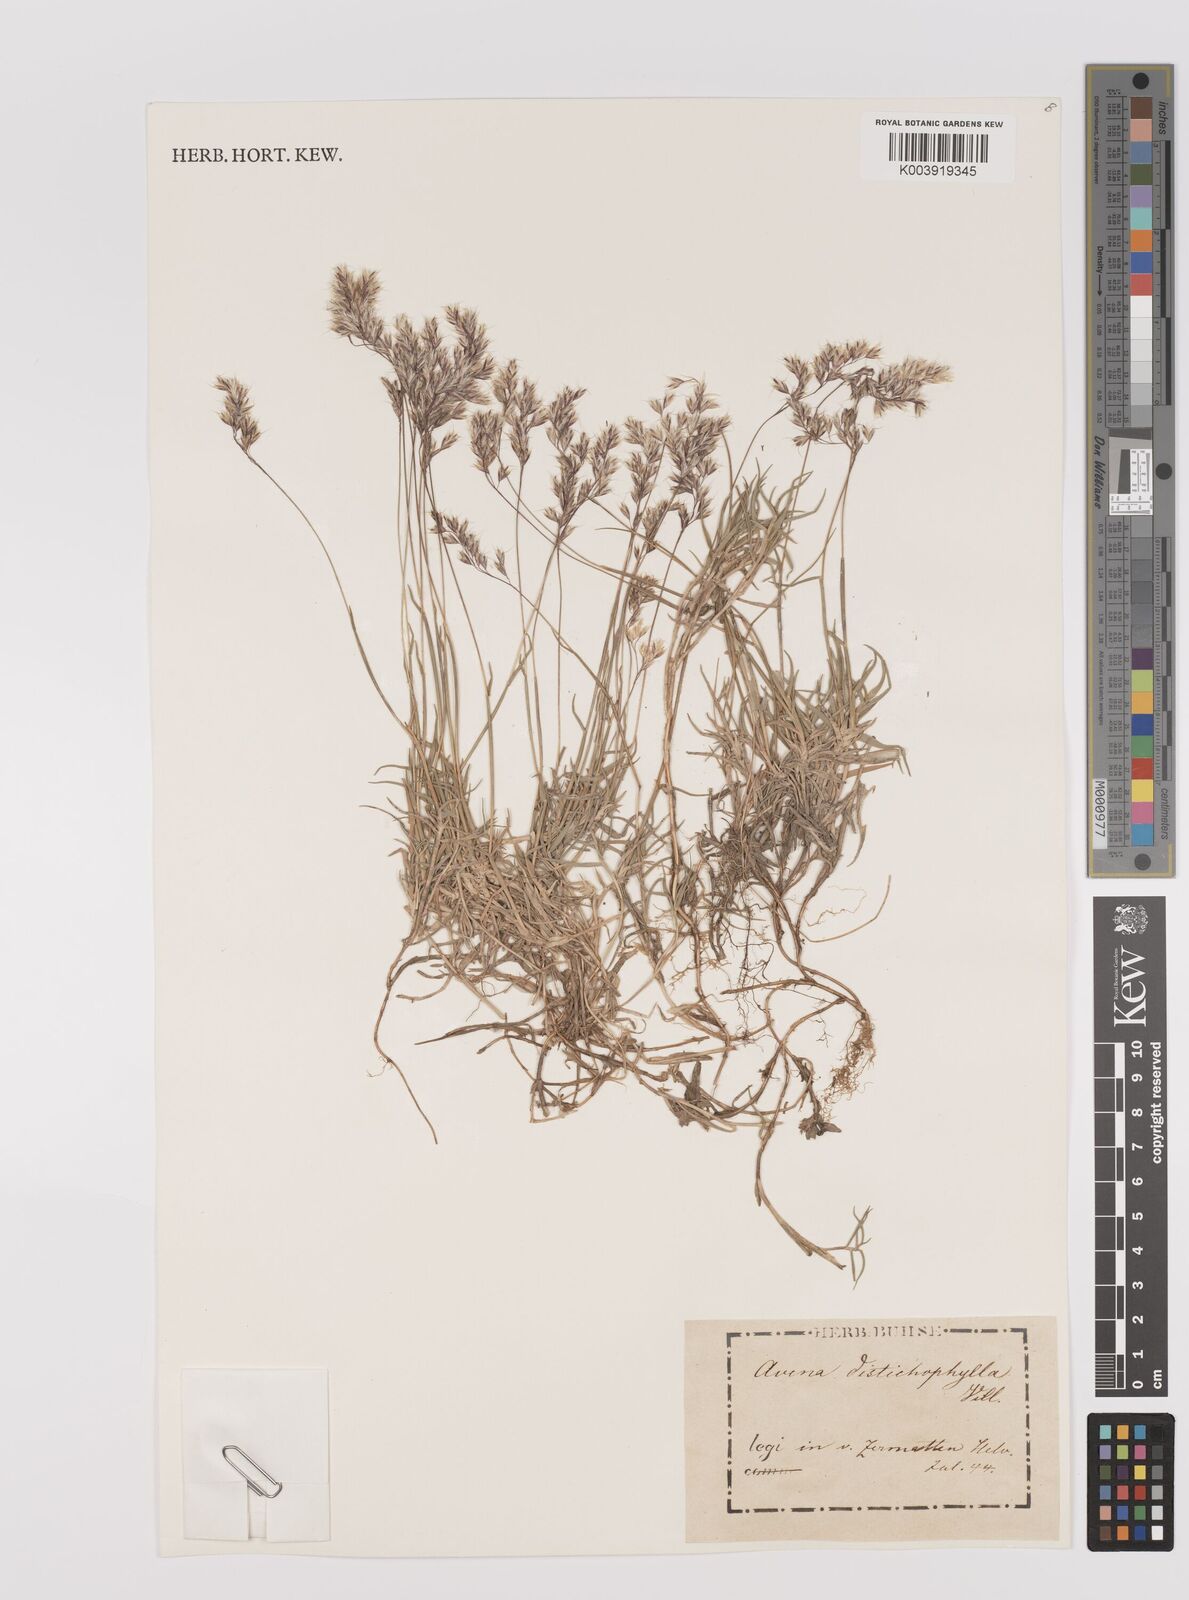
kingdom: Plantae
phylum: Tracheophyta
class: Liliopsida
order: Poales
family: Poaceae
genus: Acrospelion
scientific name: Acrospelion distichophyllum
